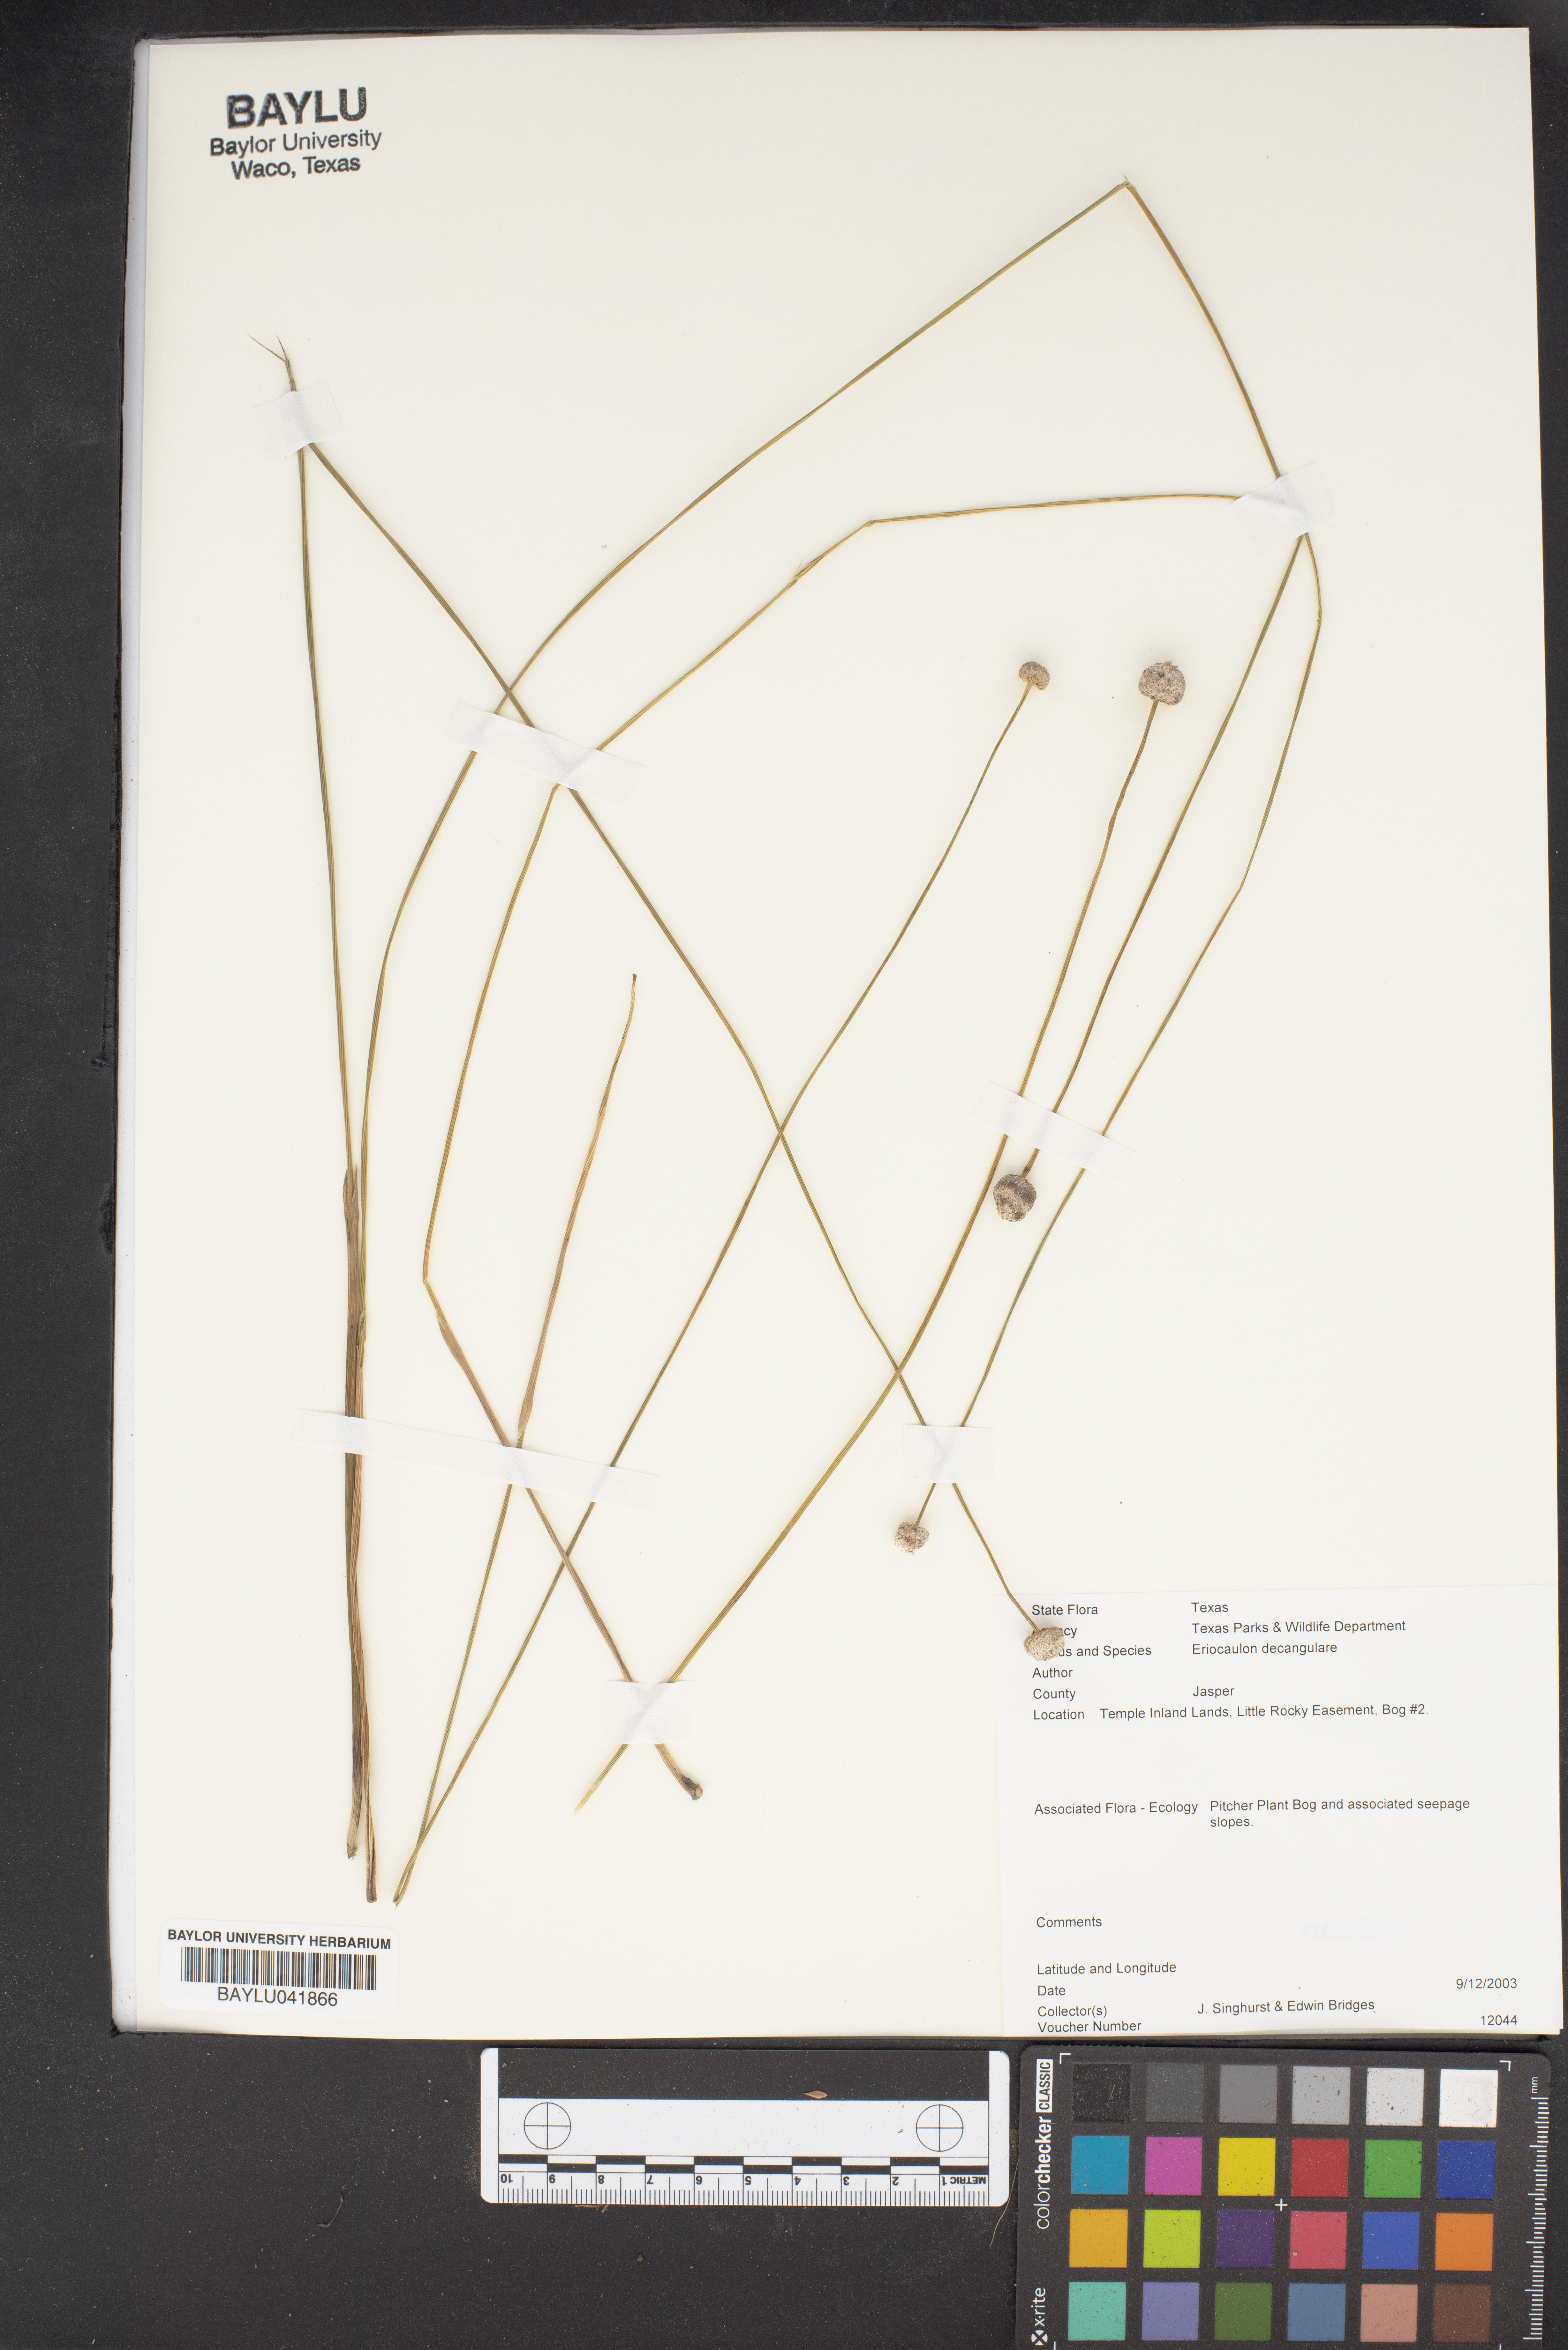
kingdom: Plantae
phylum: Tracheophyta
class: Liliopsida
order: Poales
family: Eriocaulaceae
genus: Eriocaulon
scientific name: Eriocaulon decangulare
